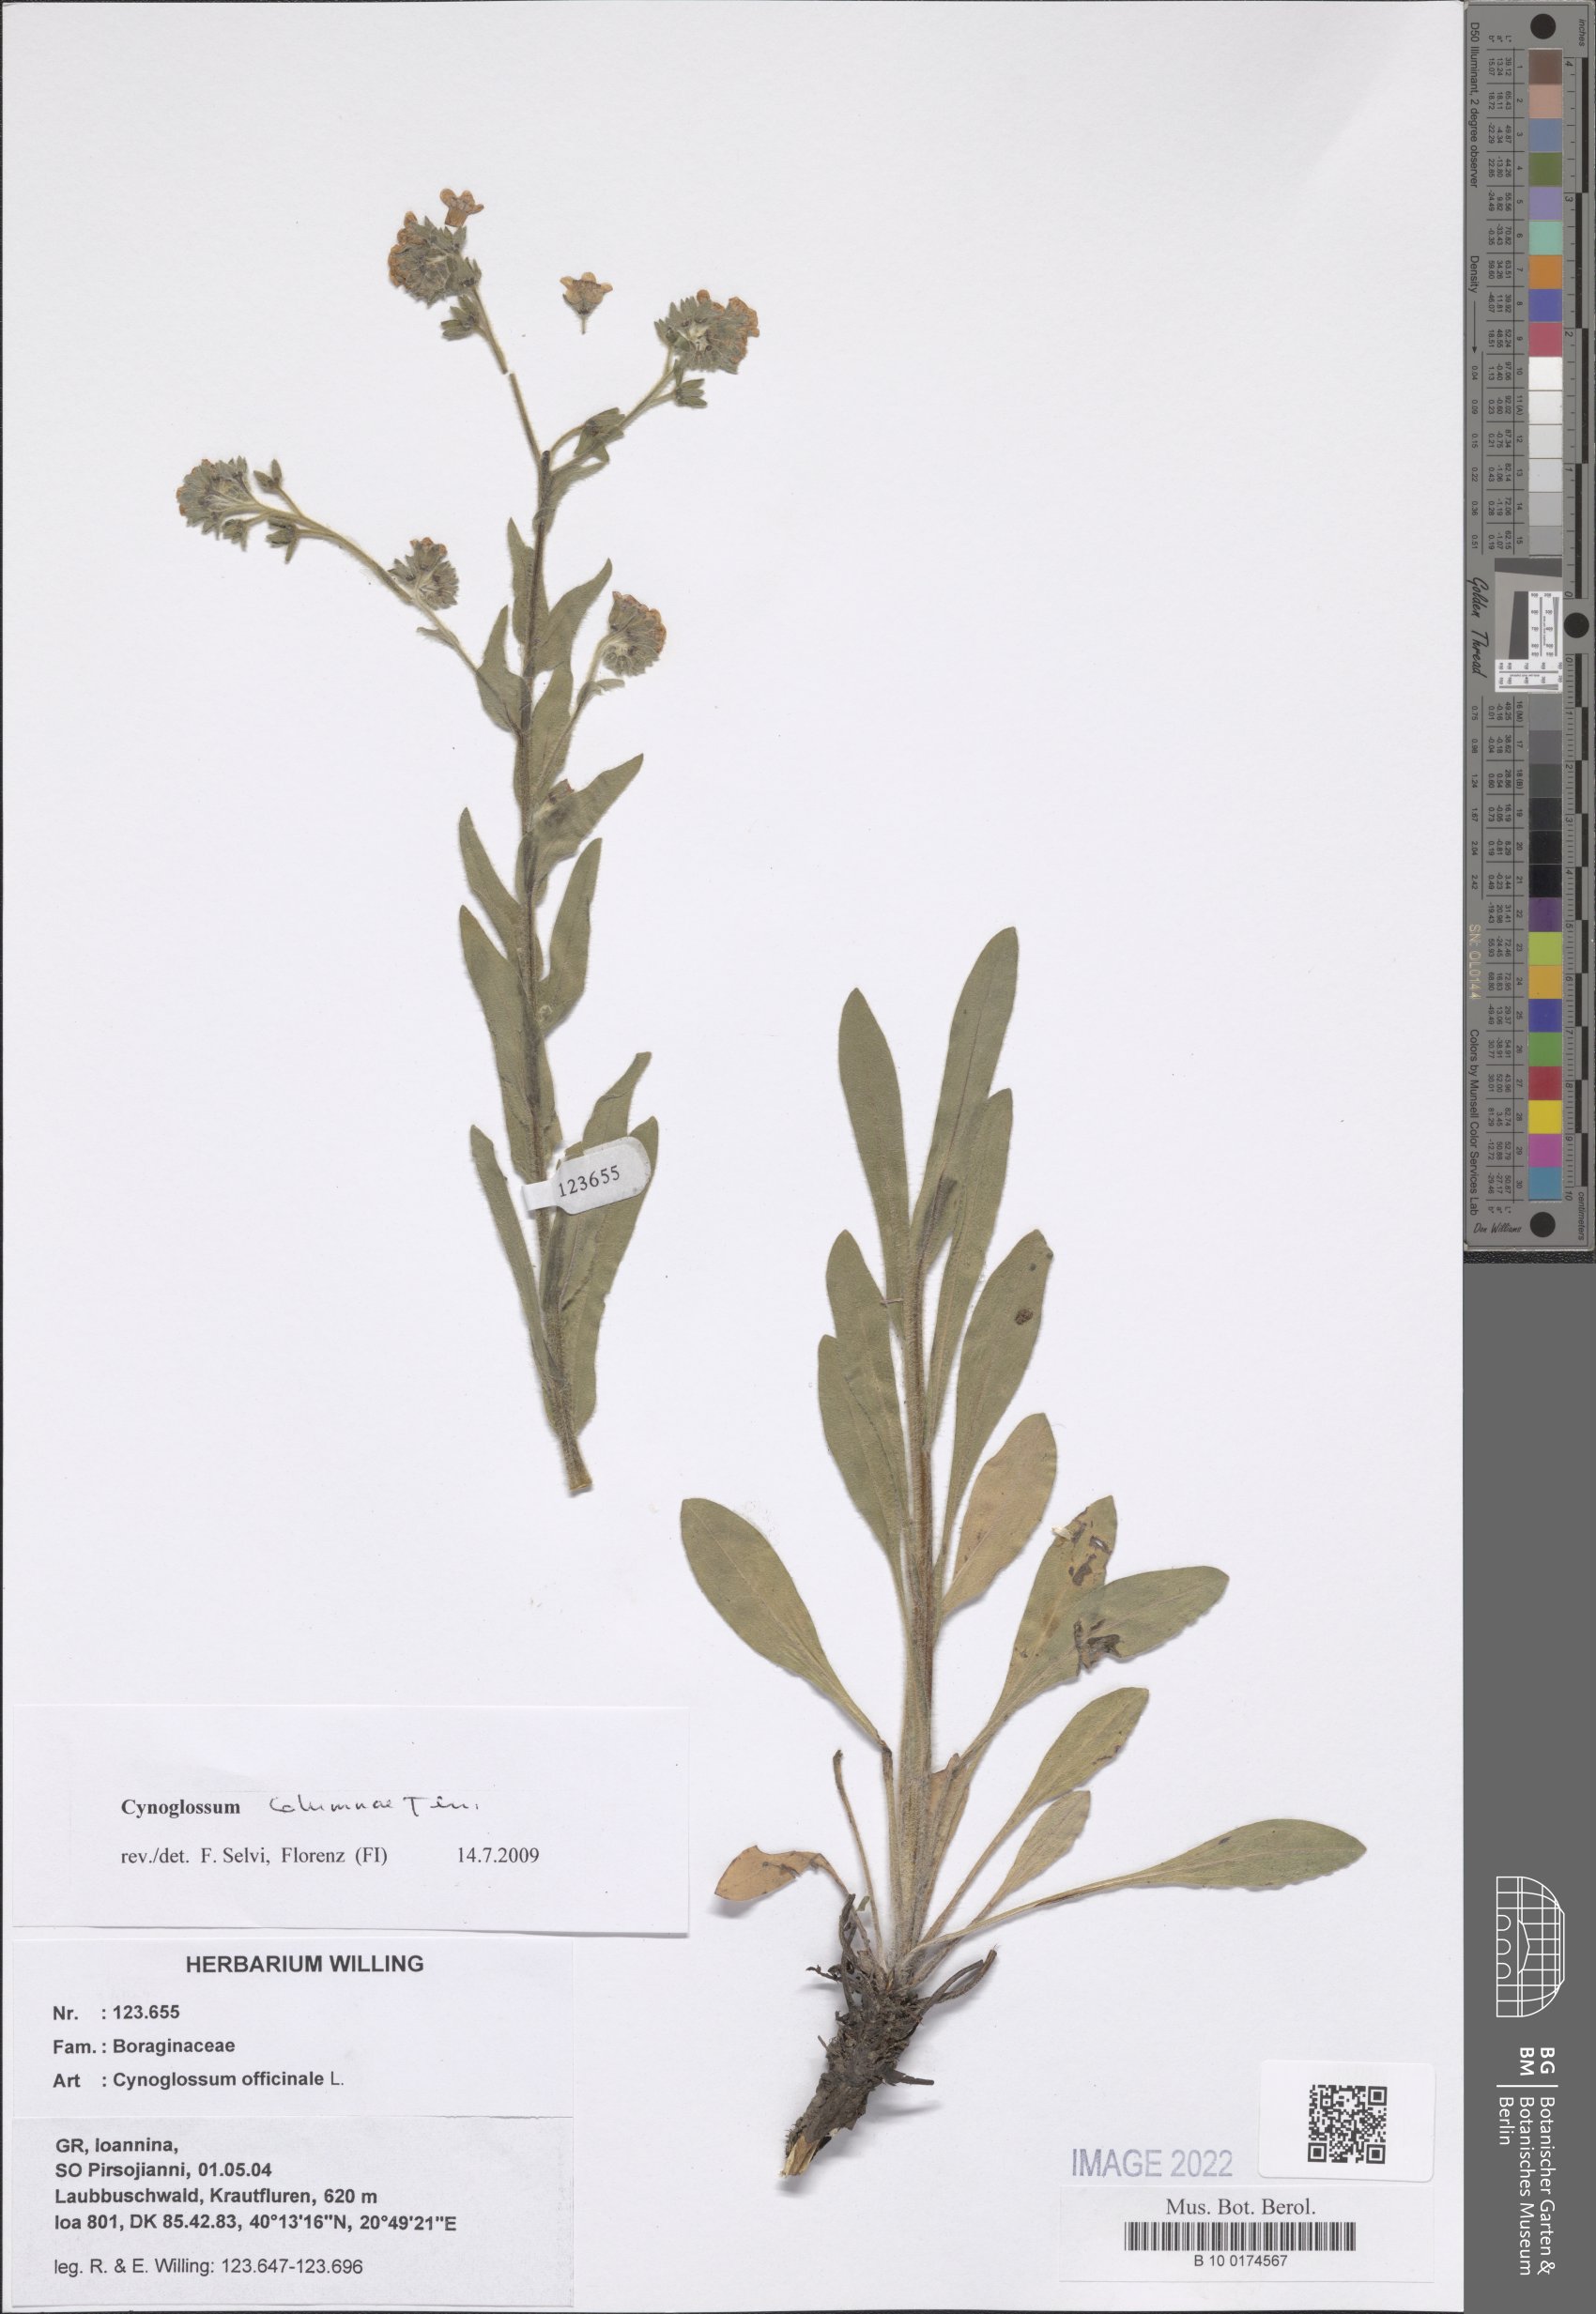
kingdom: Plantae
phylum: Tracheophyta
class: Magnoliopsida
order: Boraginales
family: Boraginaceae
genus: Rindera
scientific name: Rindera columnae
